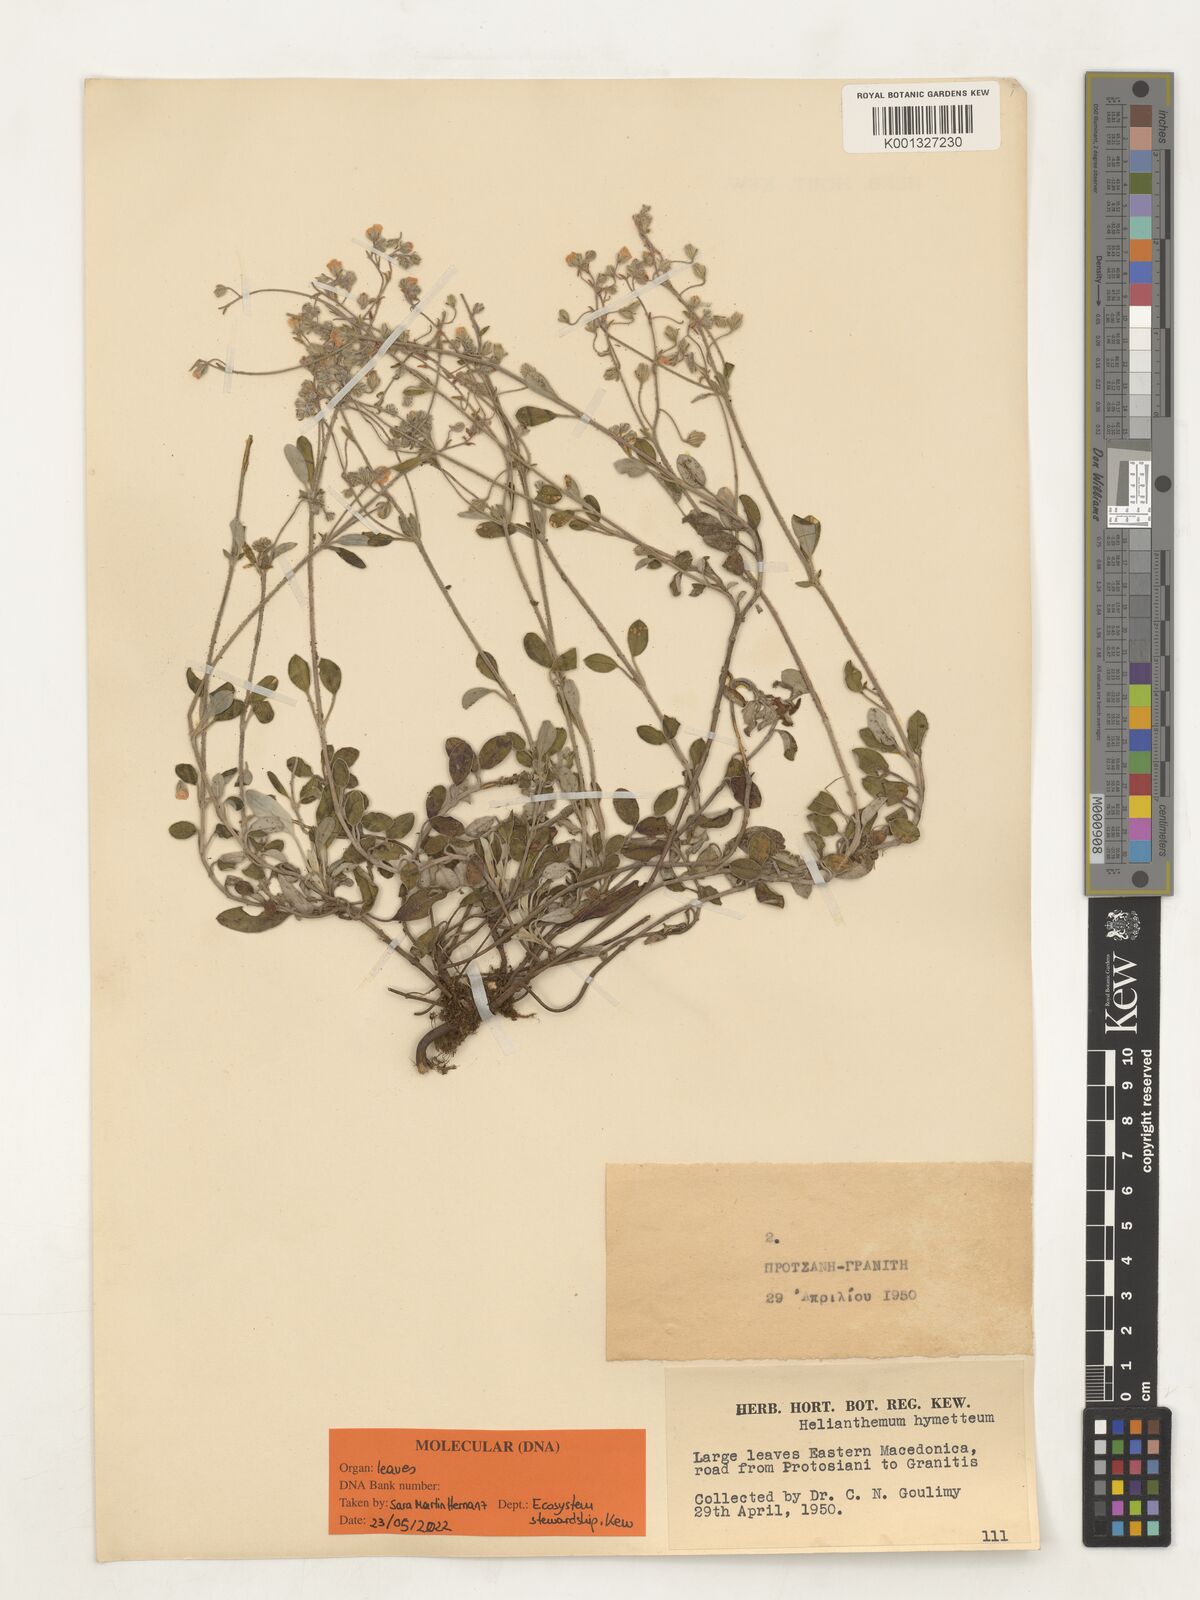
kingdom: Plantae
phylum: Tracheophyta
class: Magnoliopsida
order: Malvales
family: Cistaceae
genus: Helianthemum
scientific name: Helianthemum hymettium
